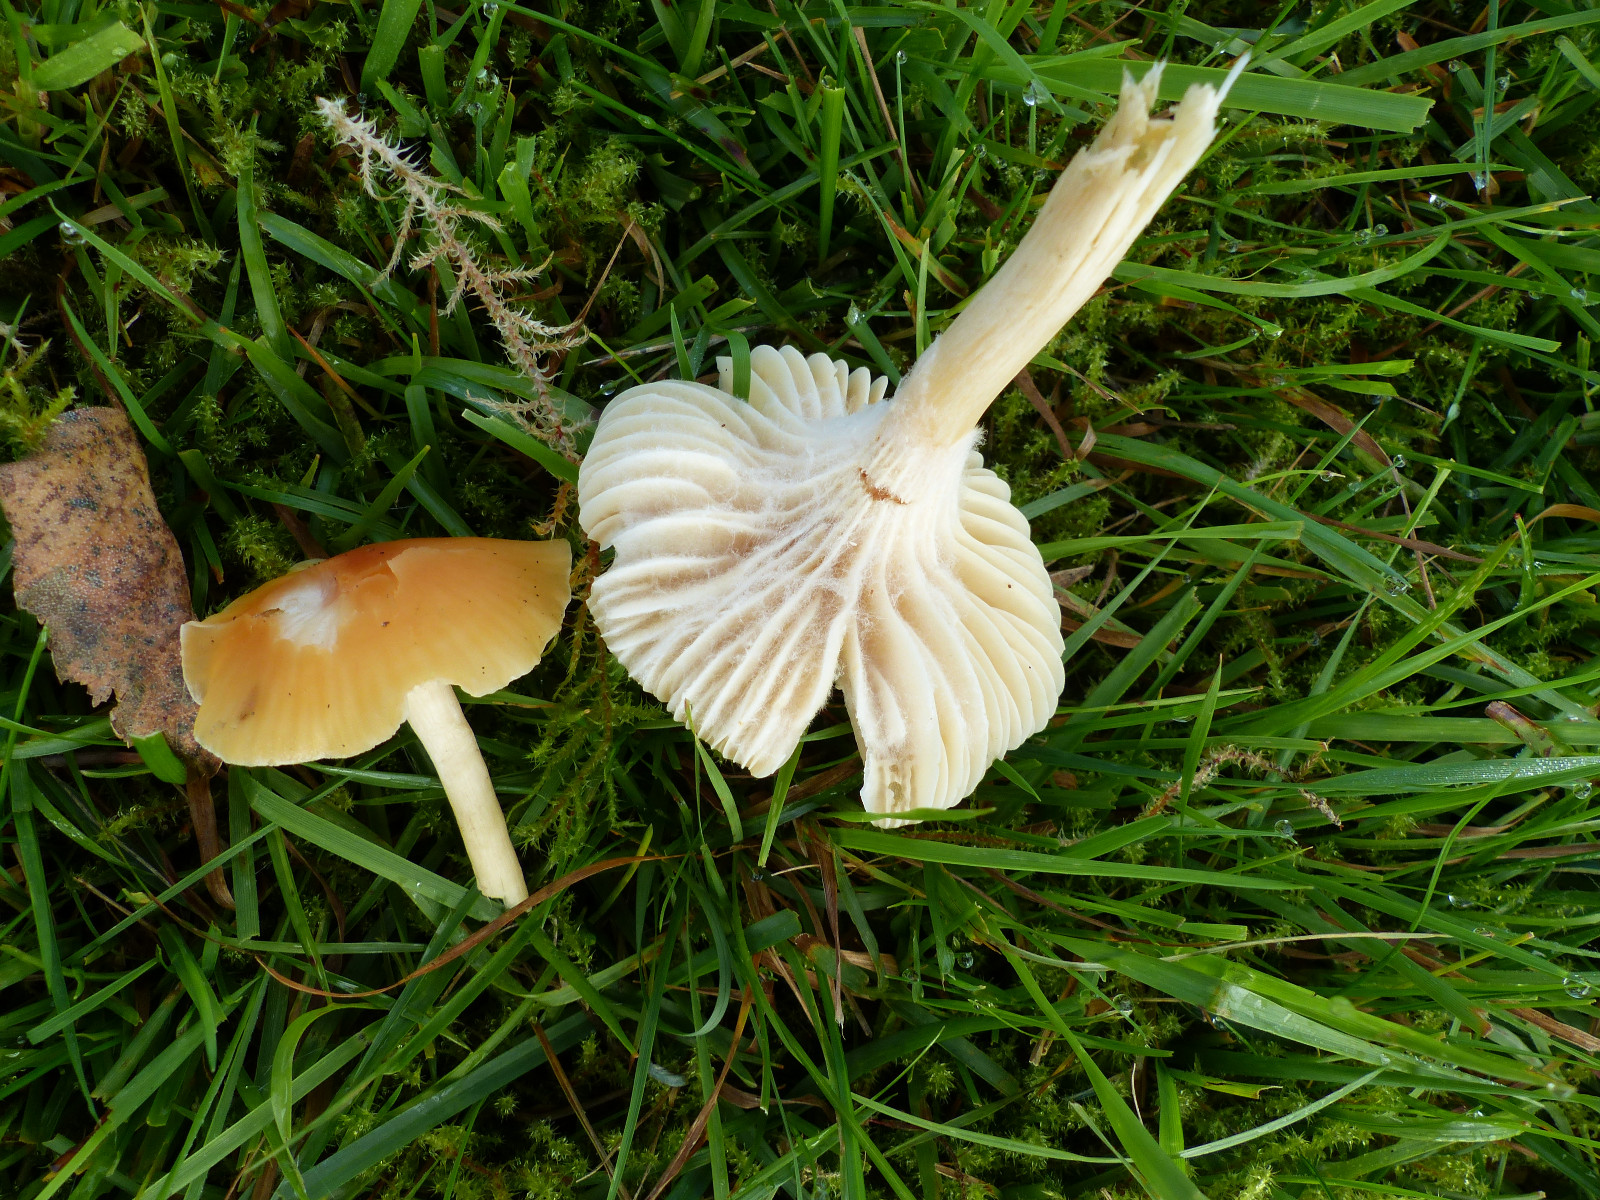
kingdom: Fungi
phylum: Basidiomycota
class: Agaricomycetes
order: Agaricales
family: Hygrophoraceae
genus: Cuphophyllus
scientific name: Cuphophyllus pratensis
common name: eng-vokshat
